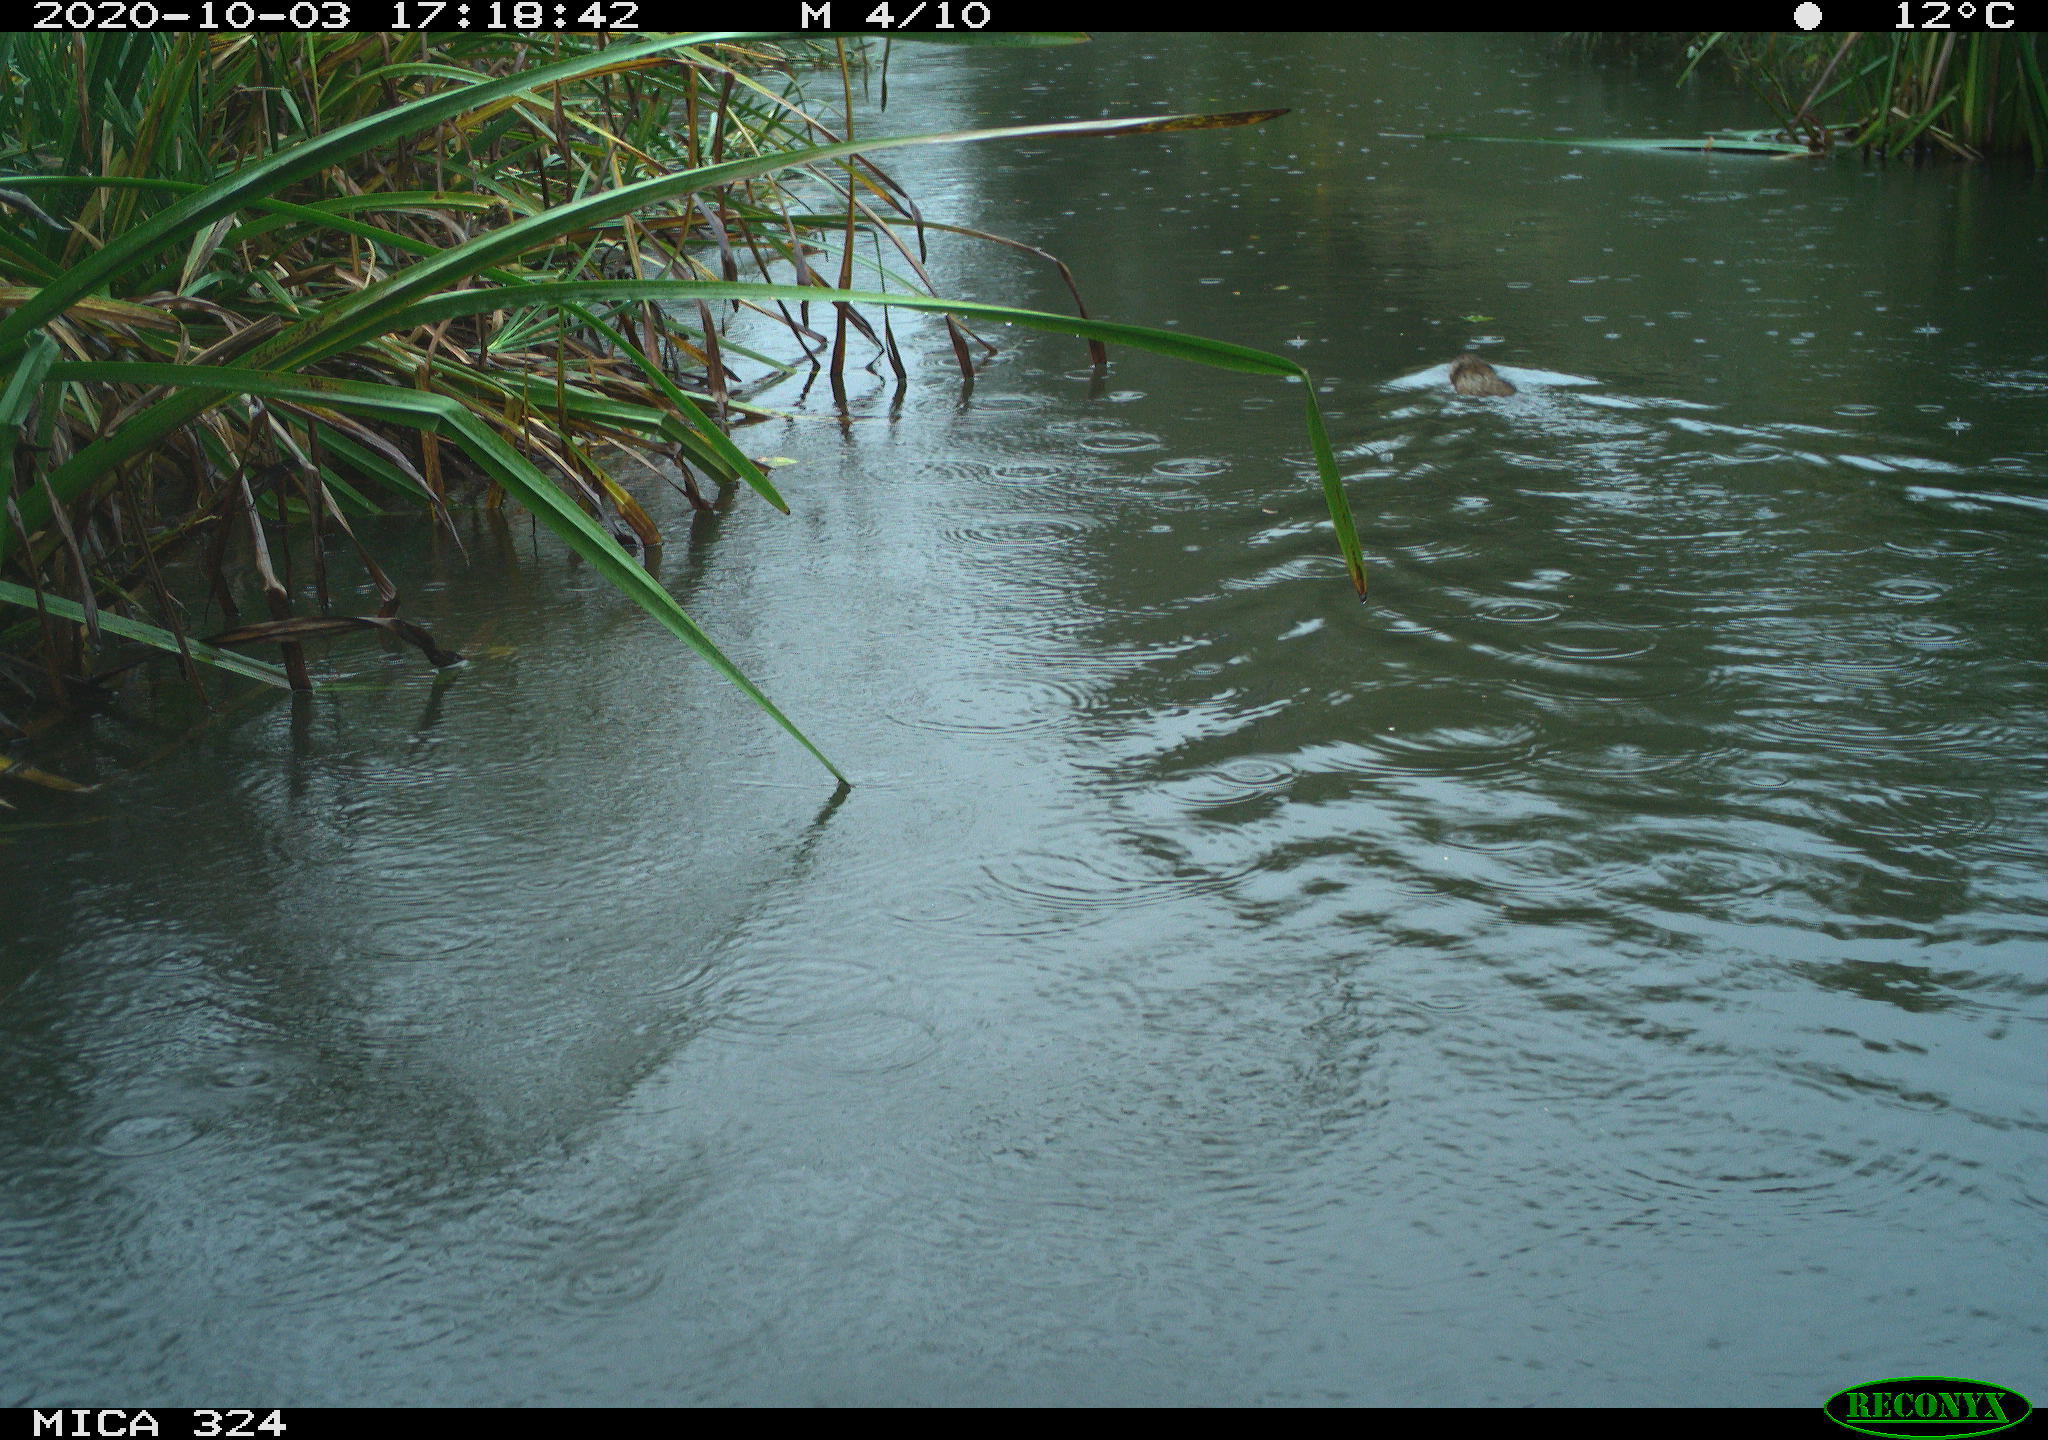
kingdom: Animalia
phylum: Chordata
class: Mammalia
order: Rodentia
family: Myocastoridae
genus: Myocastor
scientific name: Myocastor coypus
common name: Coypu
